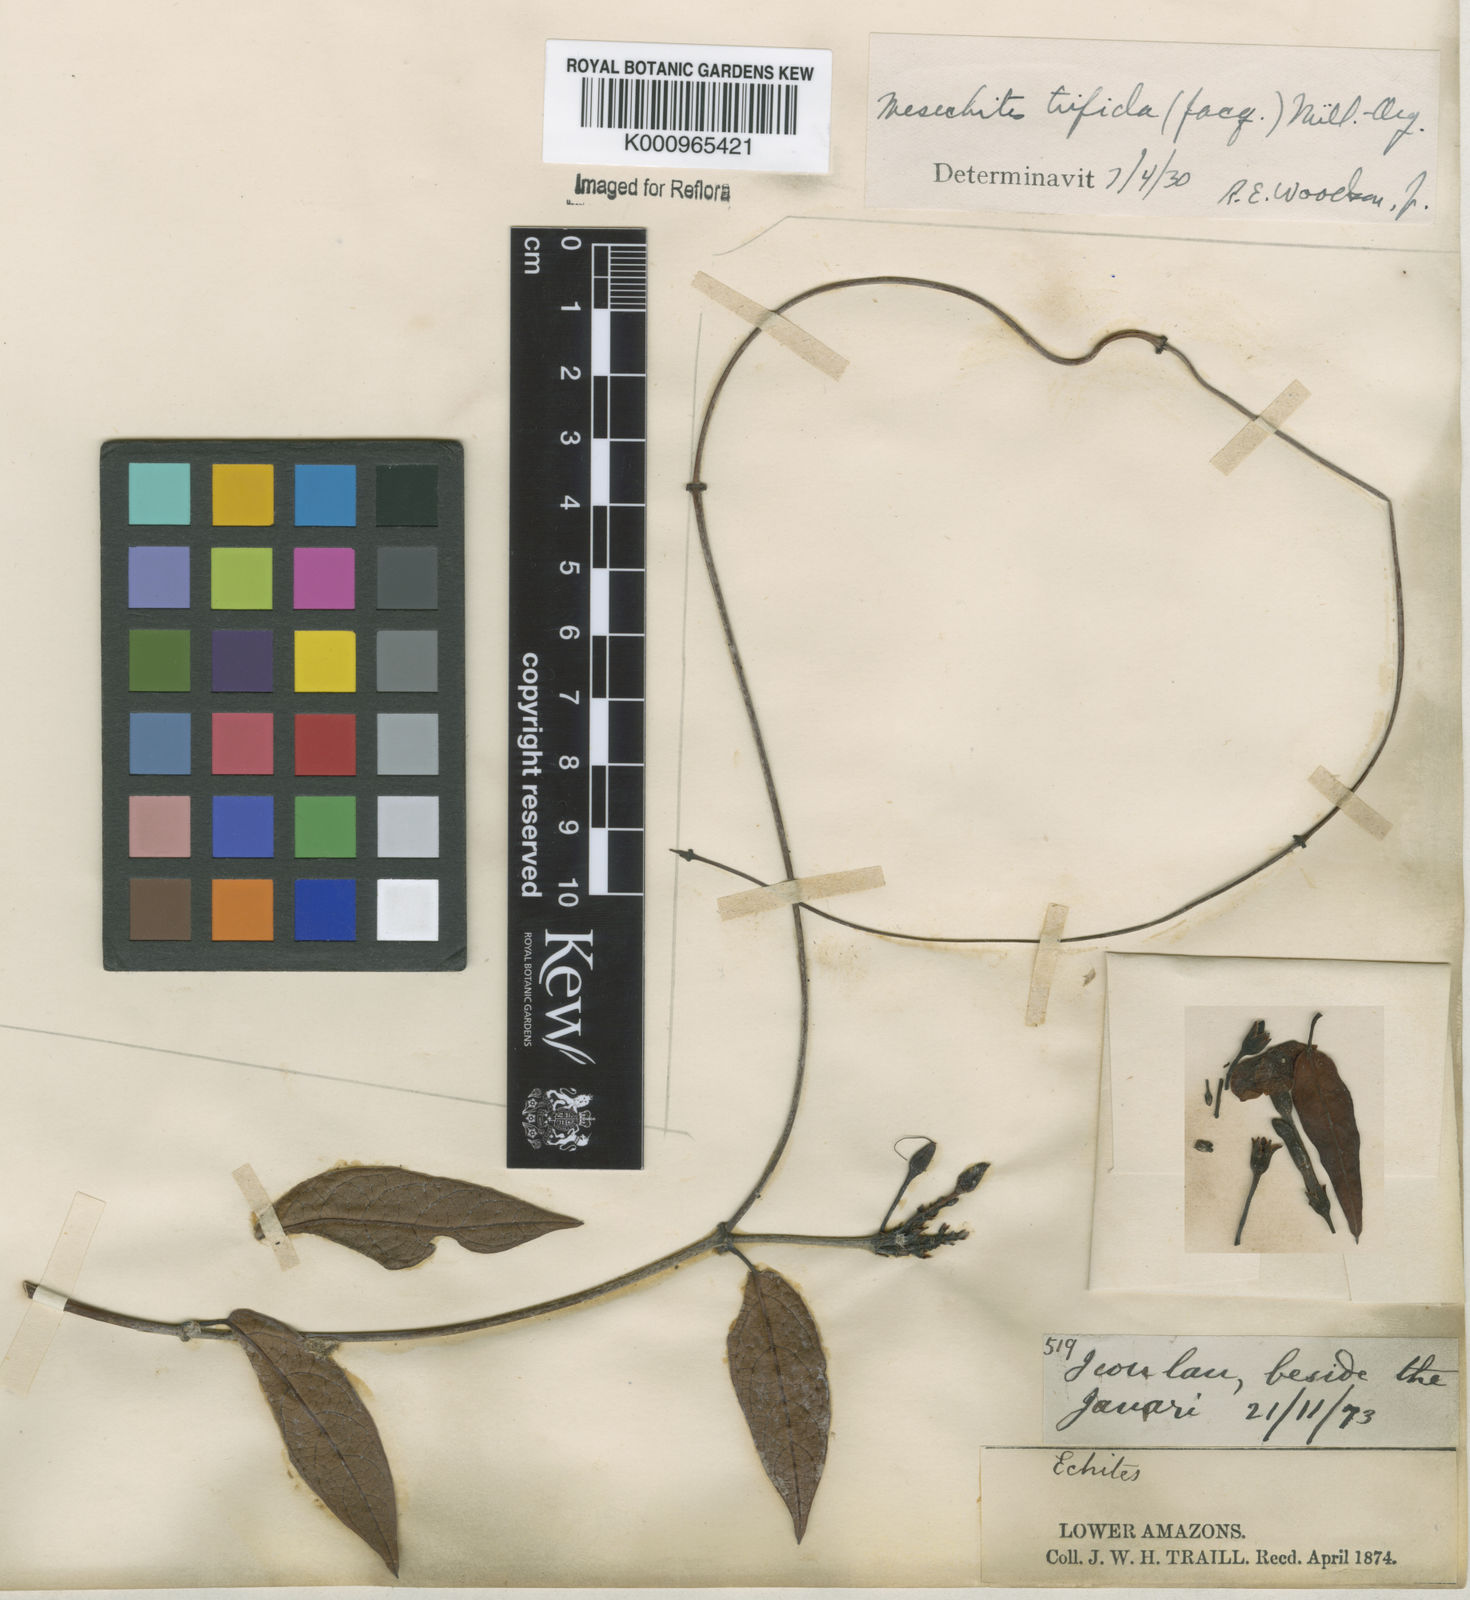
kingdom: Plantae
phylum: Tracheophyta
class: Magnoliopsida
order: Gentianales
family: Apocynaceae
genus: Mesechites
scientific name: Mesechites
